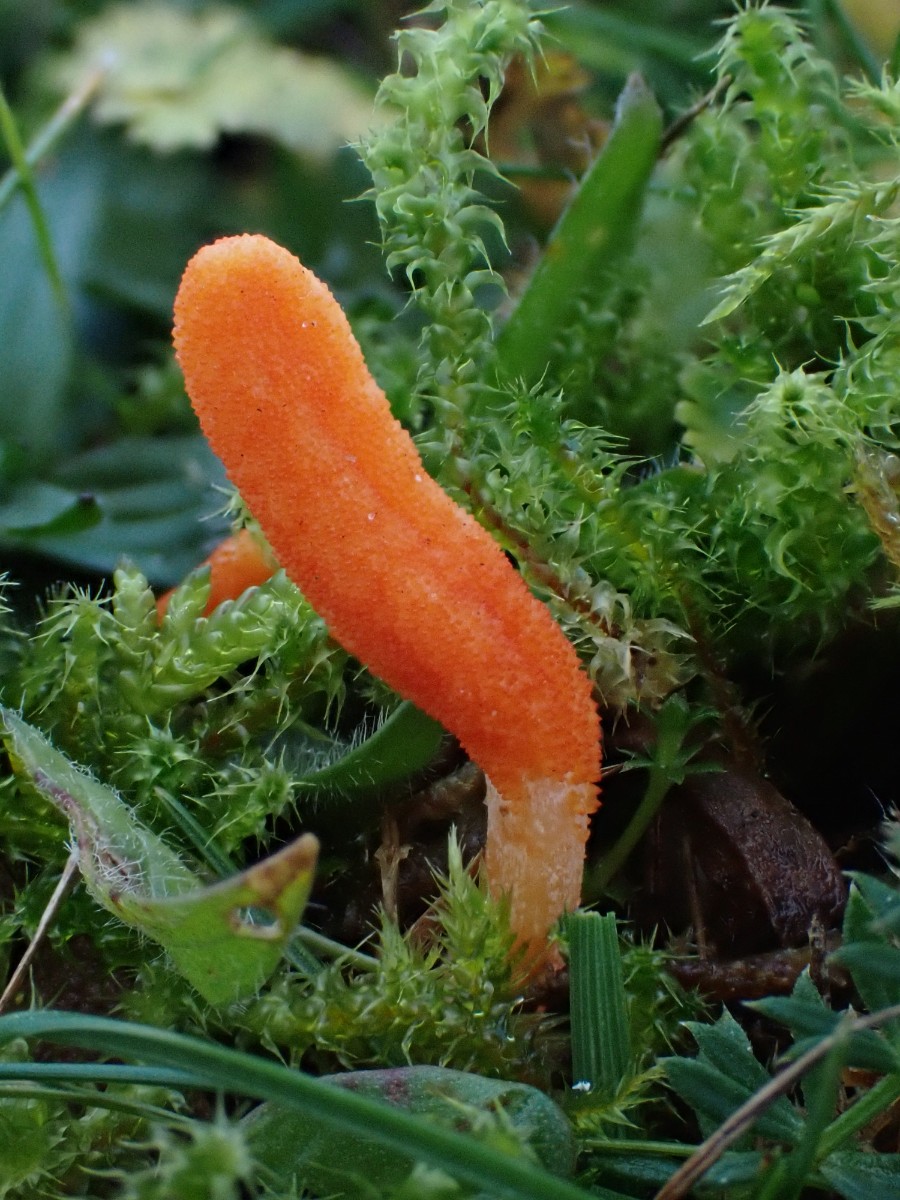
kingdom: Fungi
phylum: Ascomycota
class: Sordariomycetes
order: Hypocreales
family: Cordycipitaceae
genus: Cordyceps
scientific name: Cordyceps militaris
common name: puppe-snyltekølle
